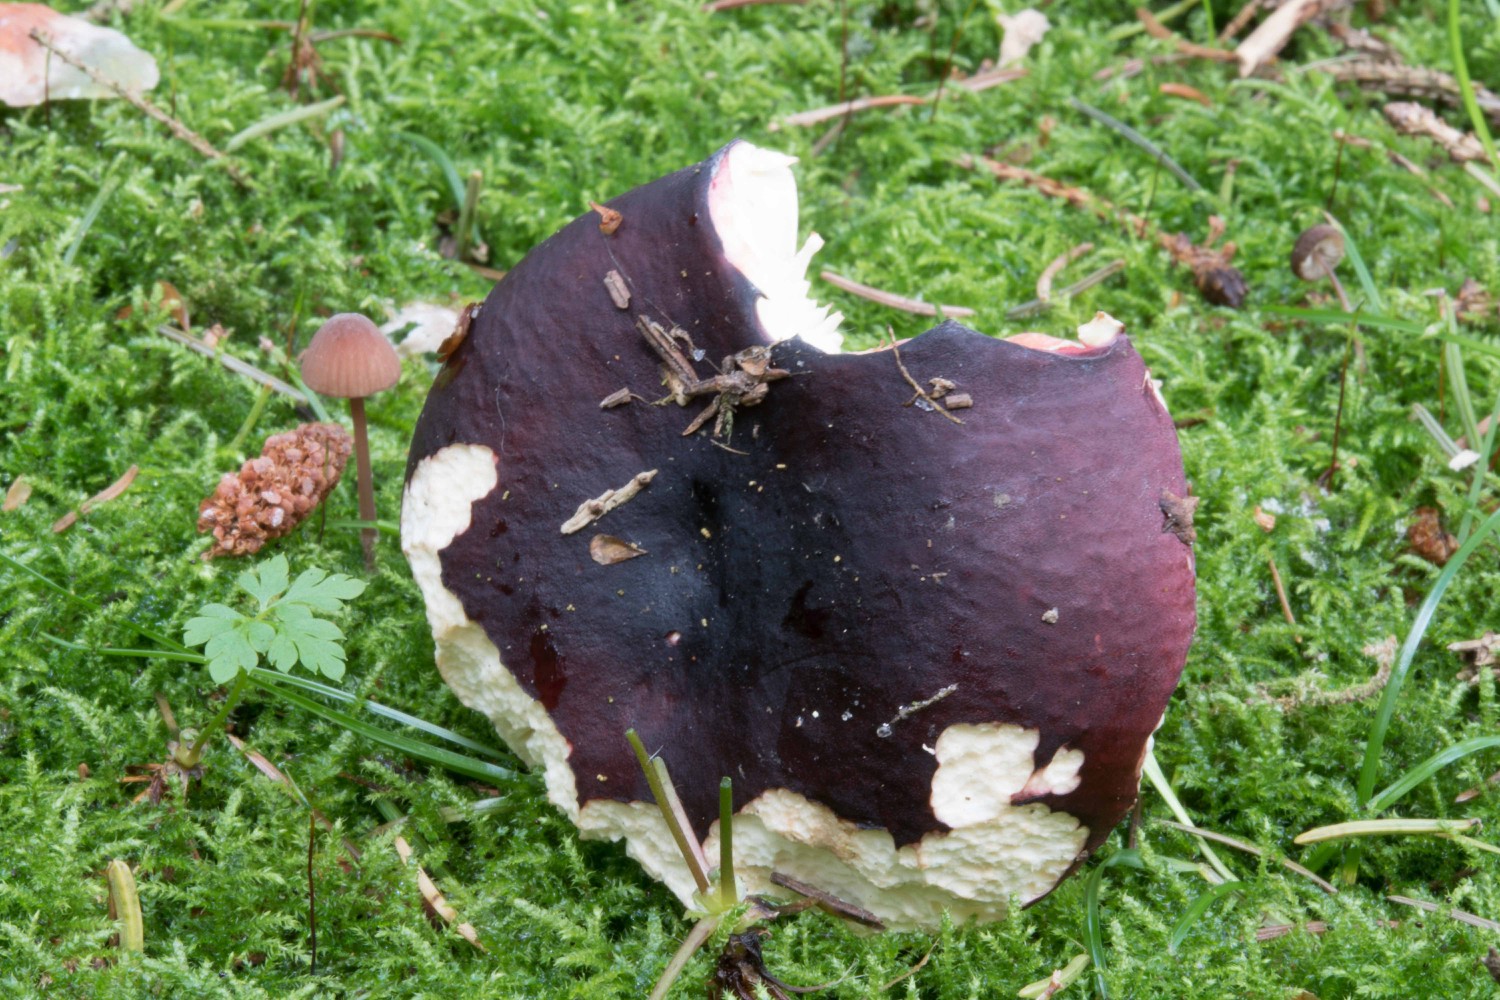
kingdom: Fungi
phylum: Basidiomycota
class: Agaricomycetes
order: Russulales
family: Russulaceae
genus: Russula
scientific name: Russula xerampelina
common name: hummer-skørhat
